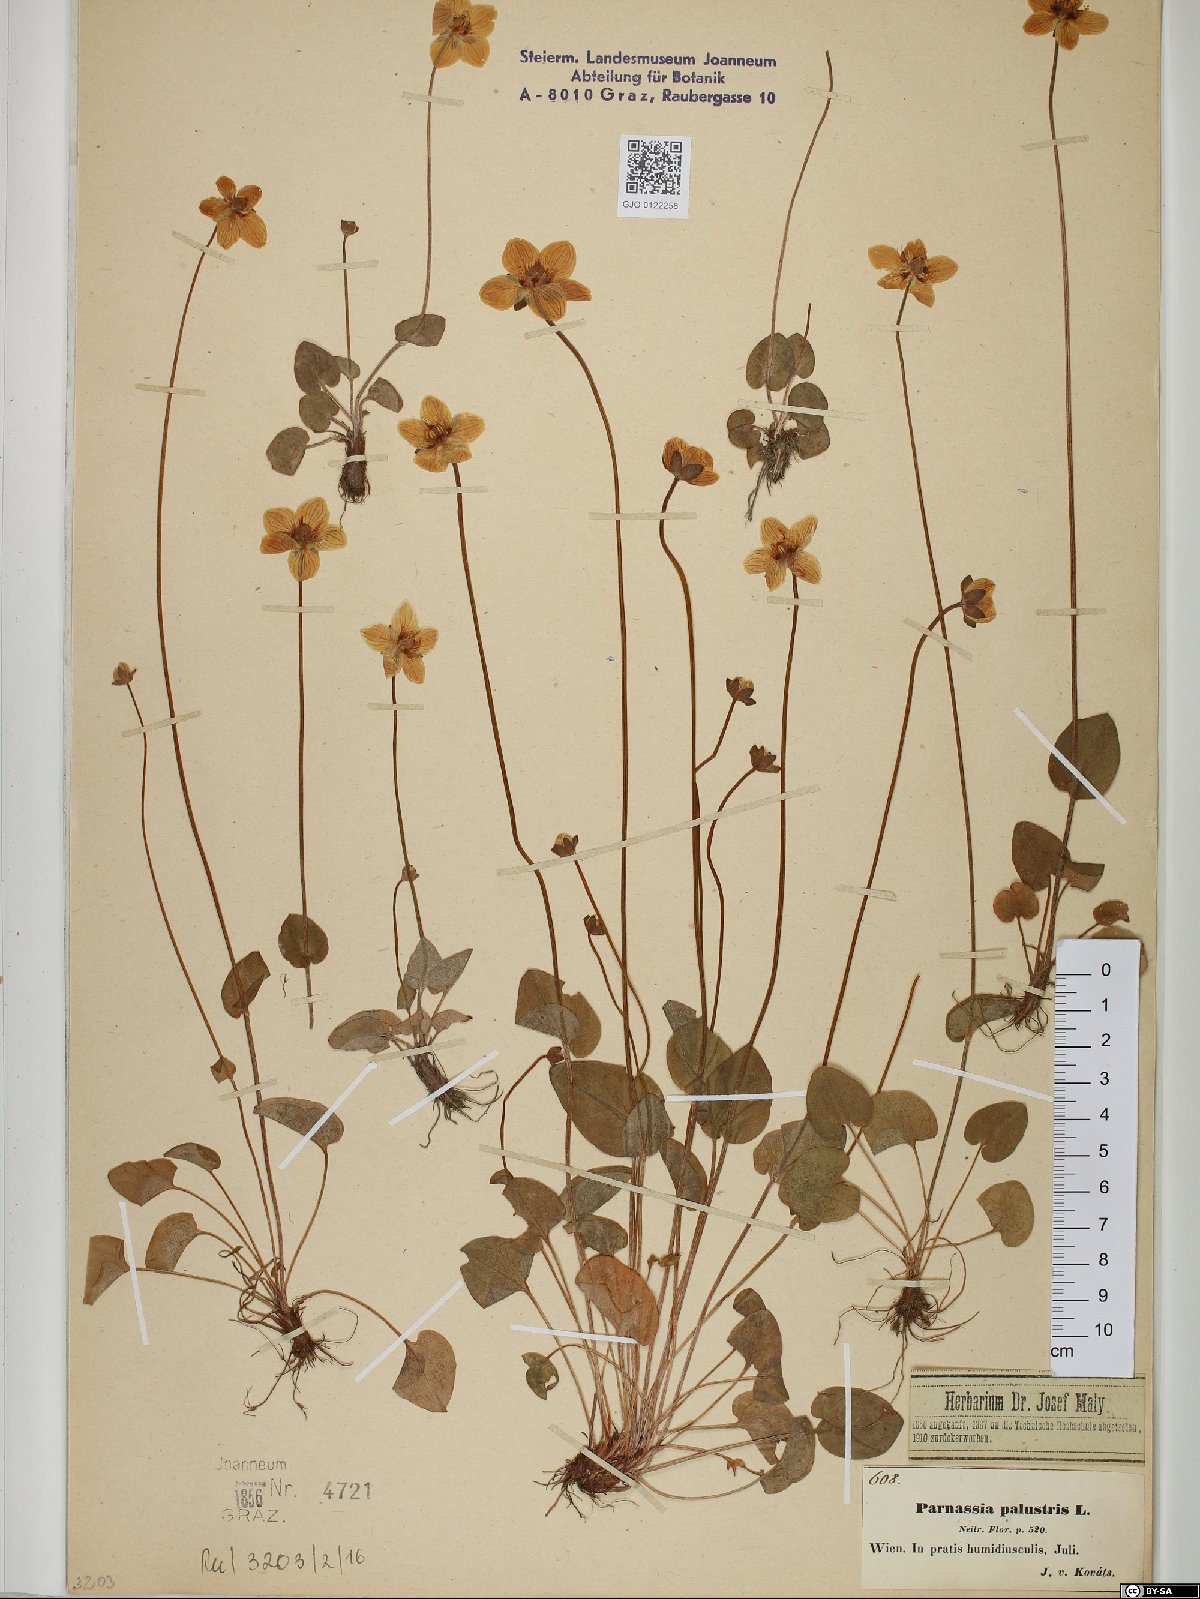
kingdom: Plantae
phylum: Tracheophyta
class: Magnoliopsida
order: Celastrales
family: Parnassiaceae
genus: Parnassia
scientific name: Parnassia palustris
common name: Grass-of-parnassus
